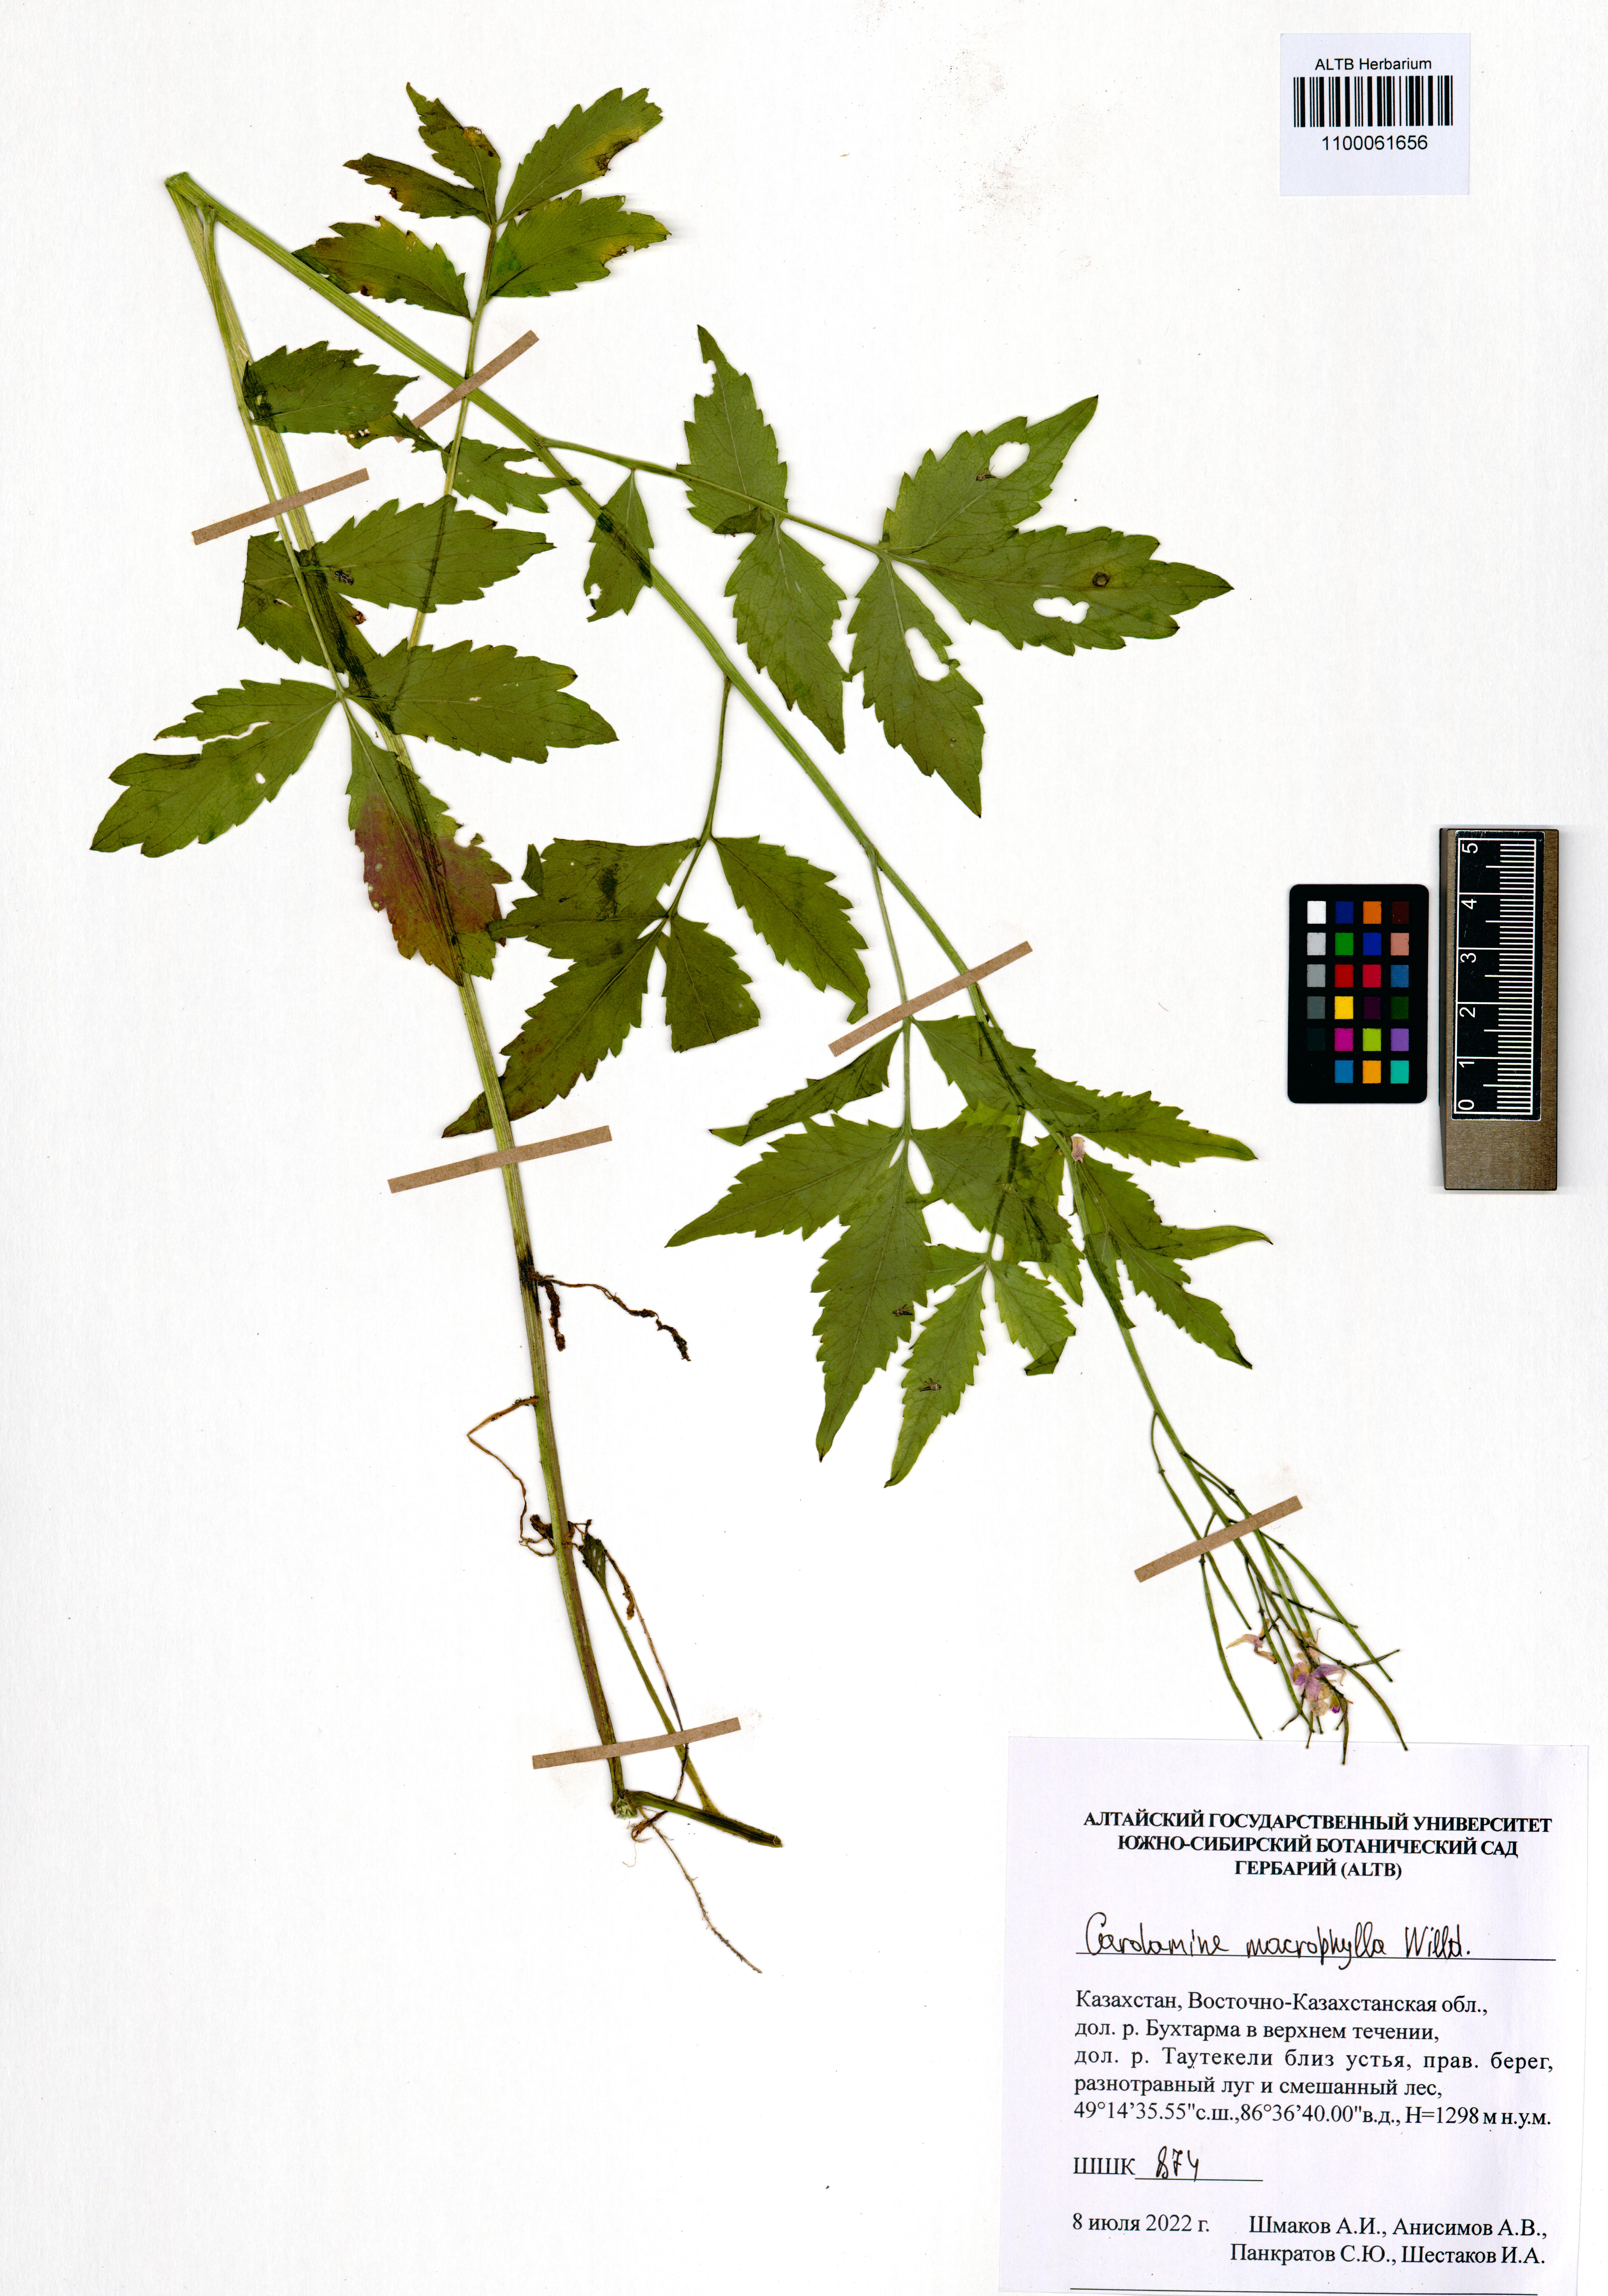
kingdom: Plantae
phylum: Tracheophyta
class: Magnoliopsida
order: Brassicales
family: Brassicaceae
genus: Cardamine
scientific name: Cardamine macrophylla
